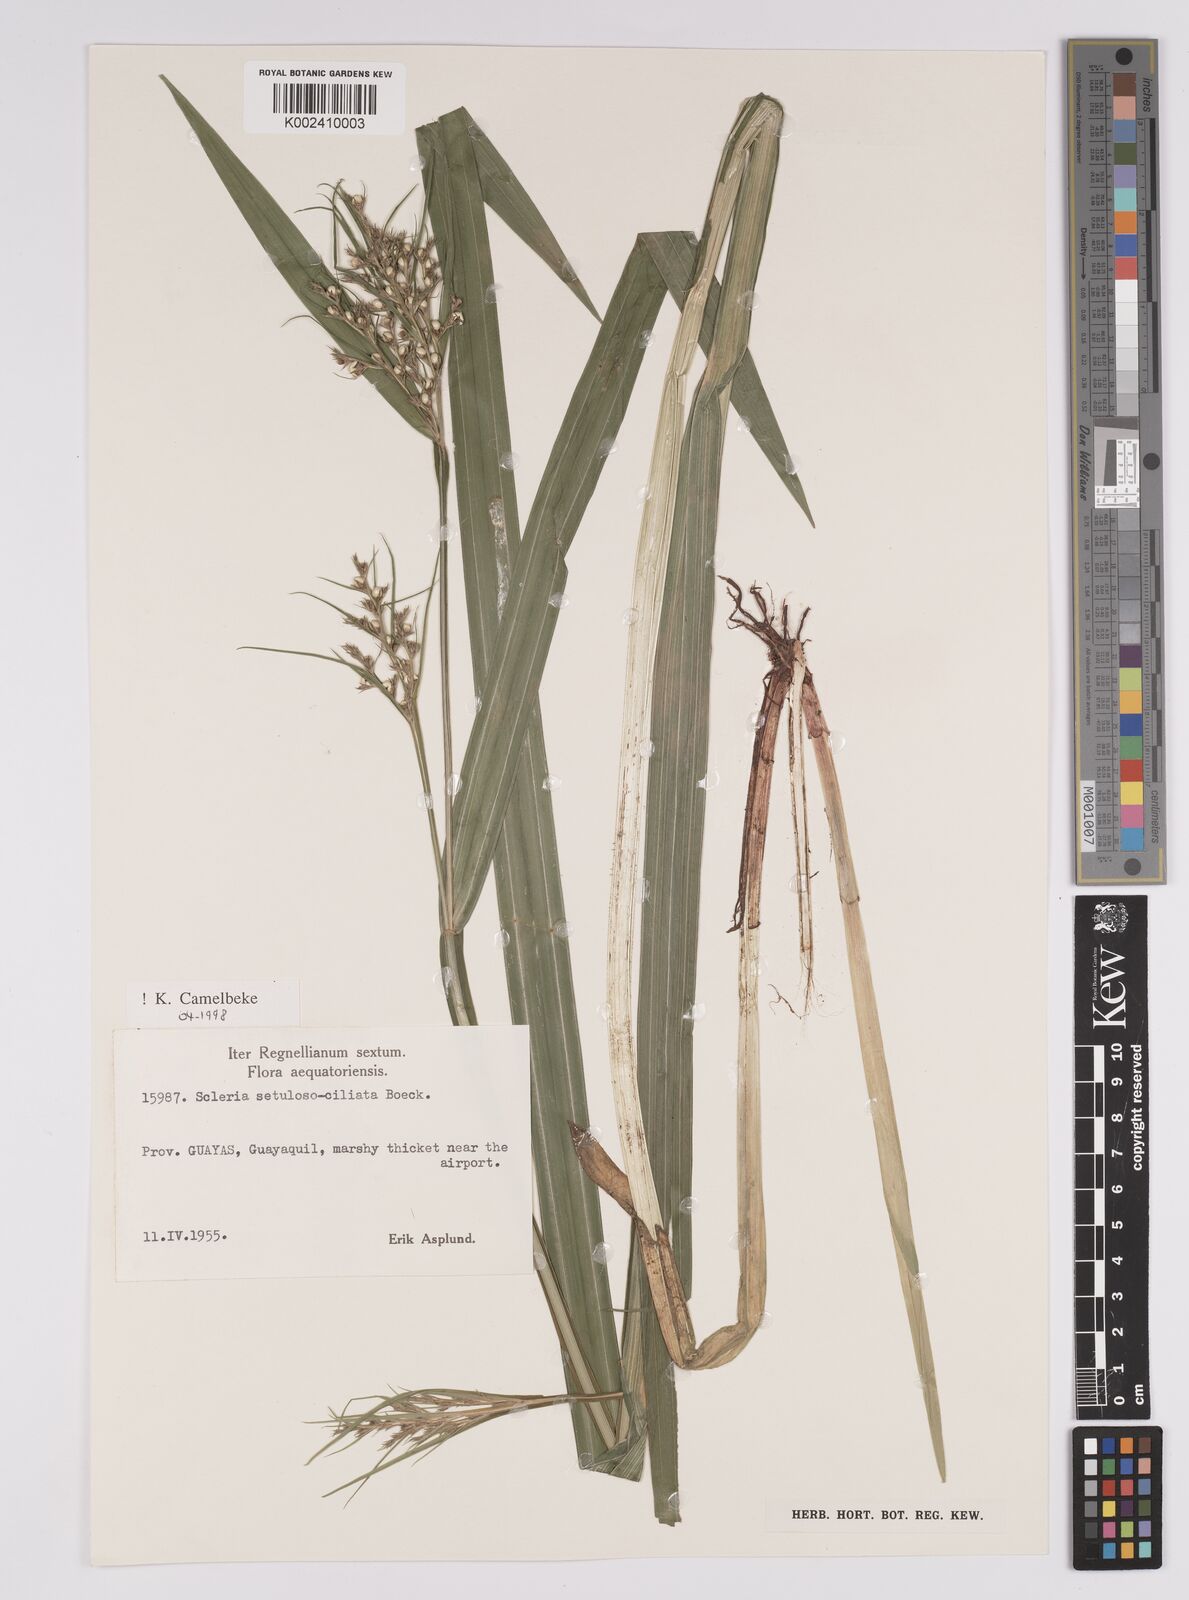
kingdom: Plantae
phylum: Tracheophyta
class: Liliopsida
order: Poales
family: Cyperaceae
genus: Scleria
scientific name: Scleria setulosociliata
